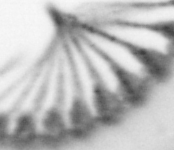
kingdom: Animalia
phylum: Annelida
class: Polychaeta
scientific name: Polychaeta
